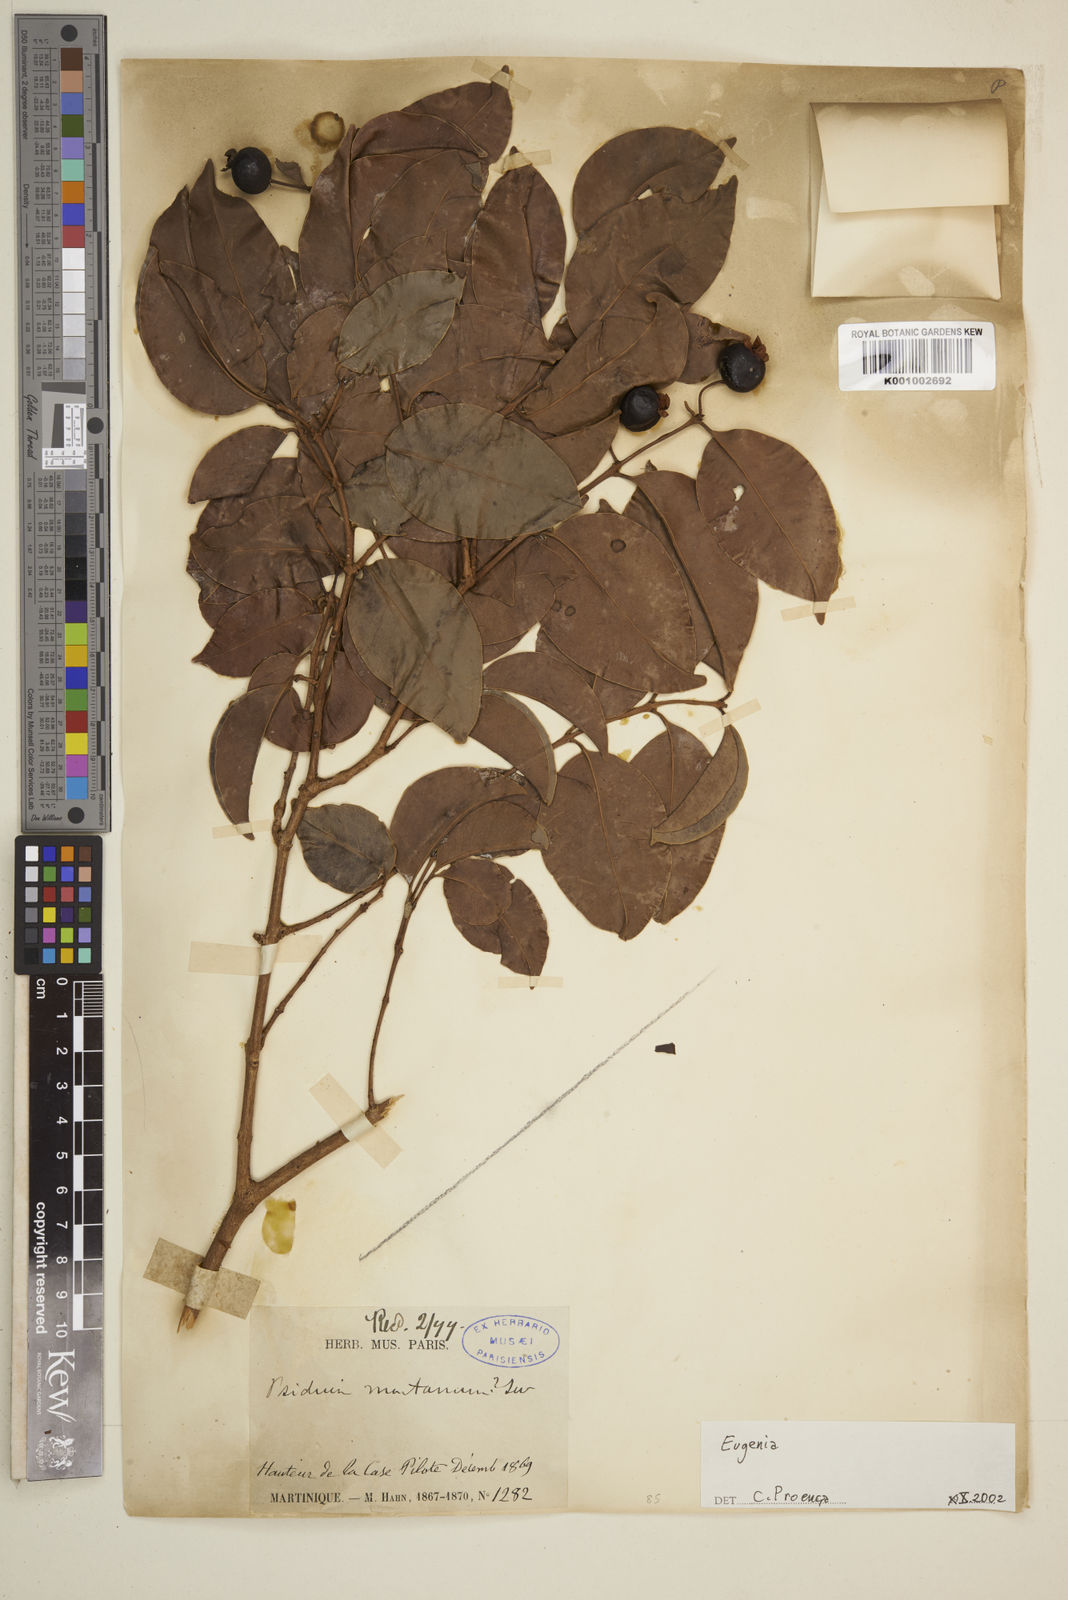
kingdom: Plantae
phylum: Tracheophyta
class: Magnoliopsida
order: Myrtales
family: Myrtaceae
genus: Eugenia
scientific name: Eugenia
